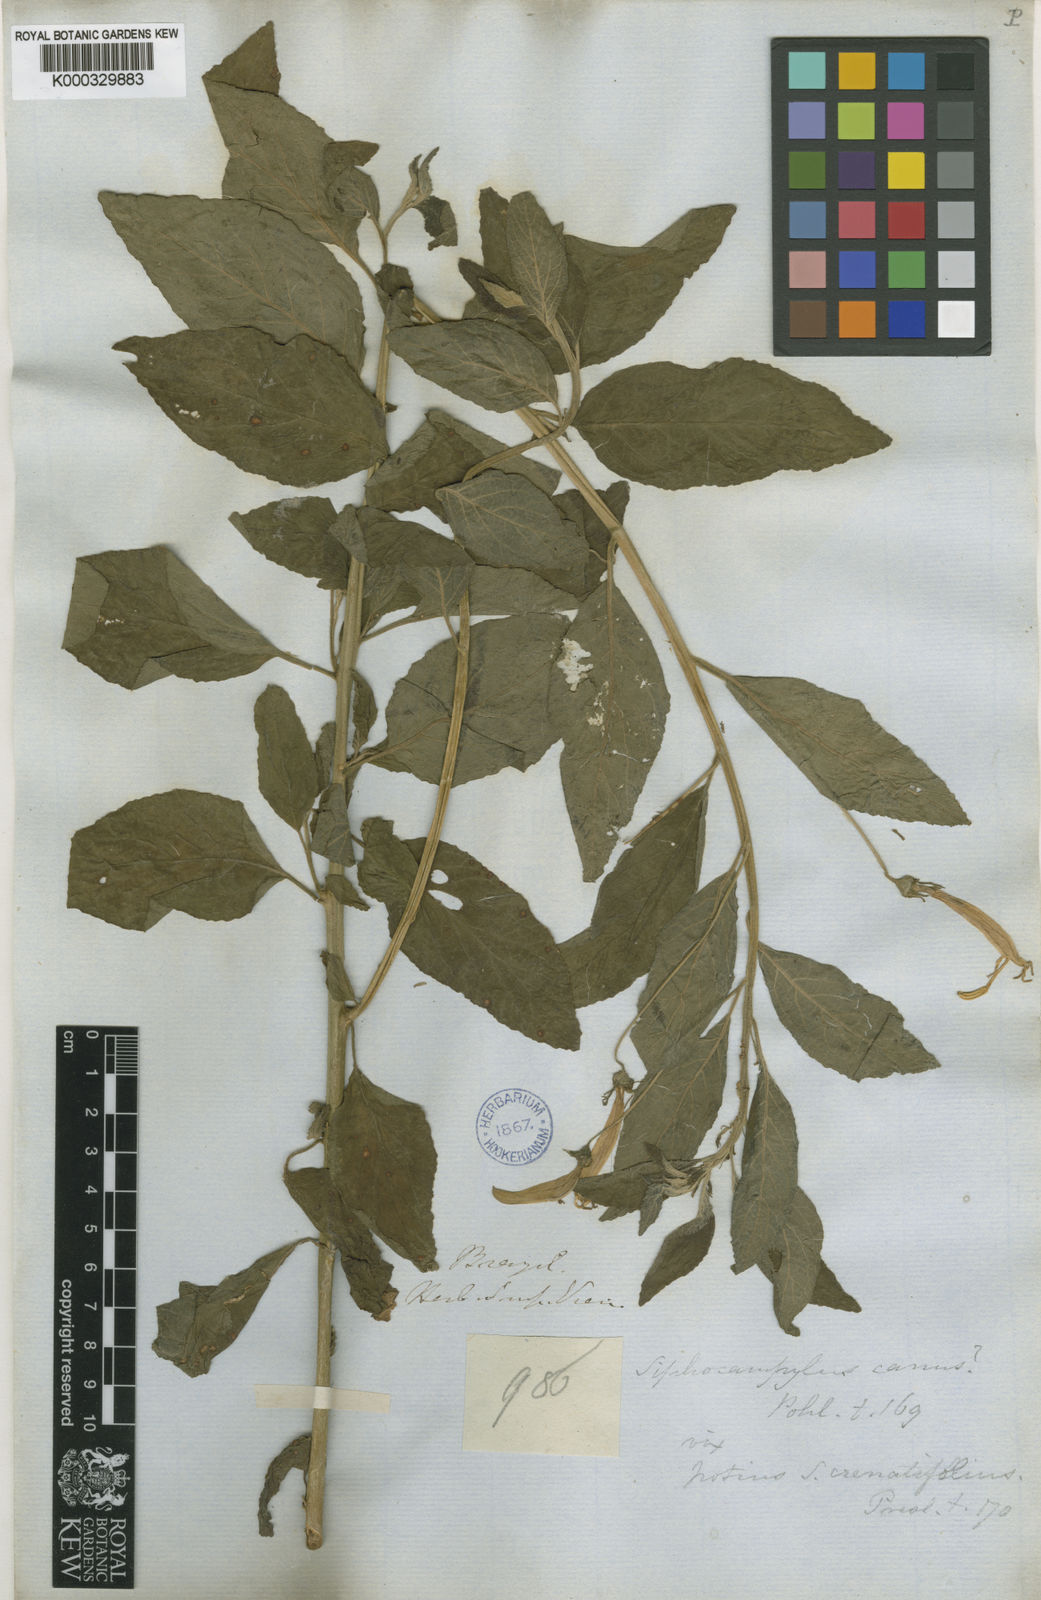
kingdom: Plantae
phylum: Tracheophyta
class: Magnoliopsida
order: Asterales
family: Campanulaceae
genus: Siphocampylus
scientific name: Siphocampylus macropodus
